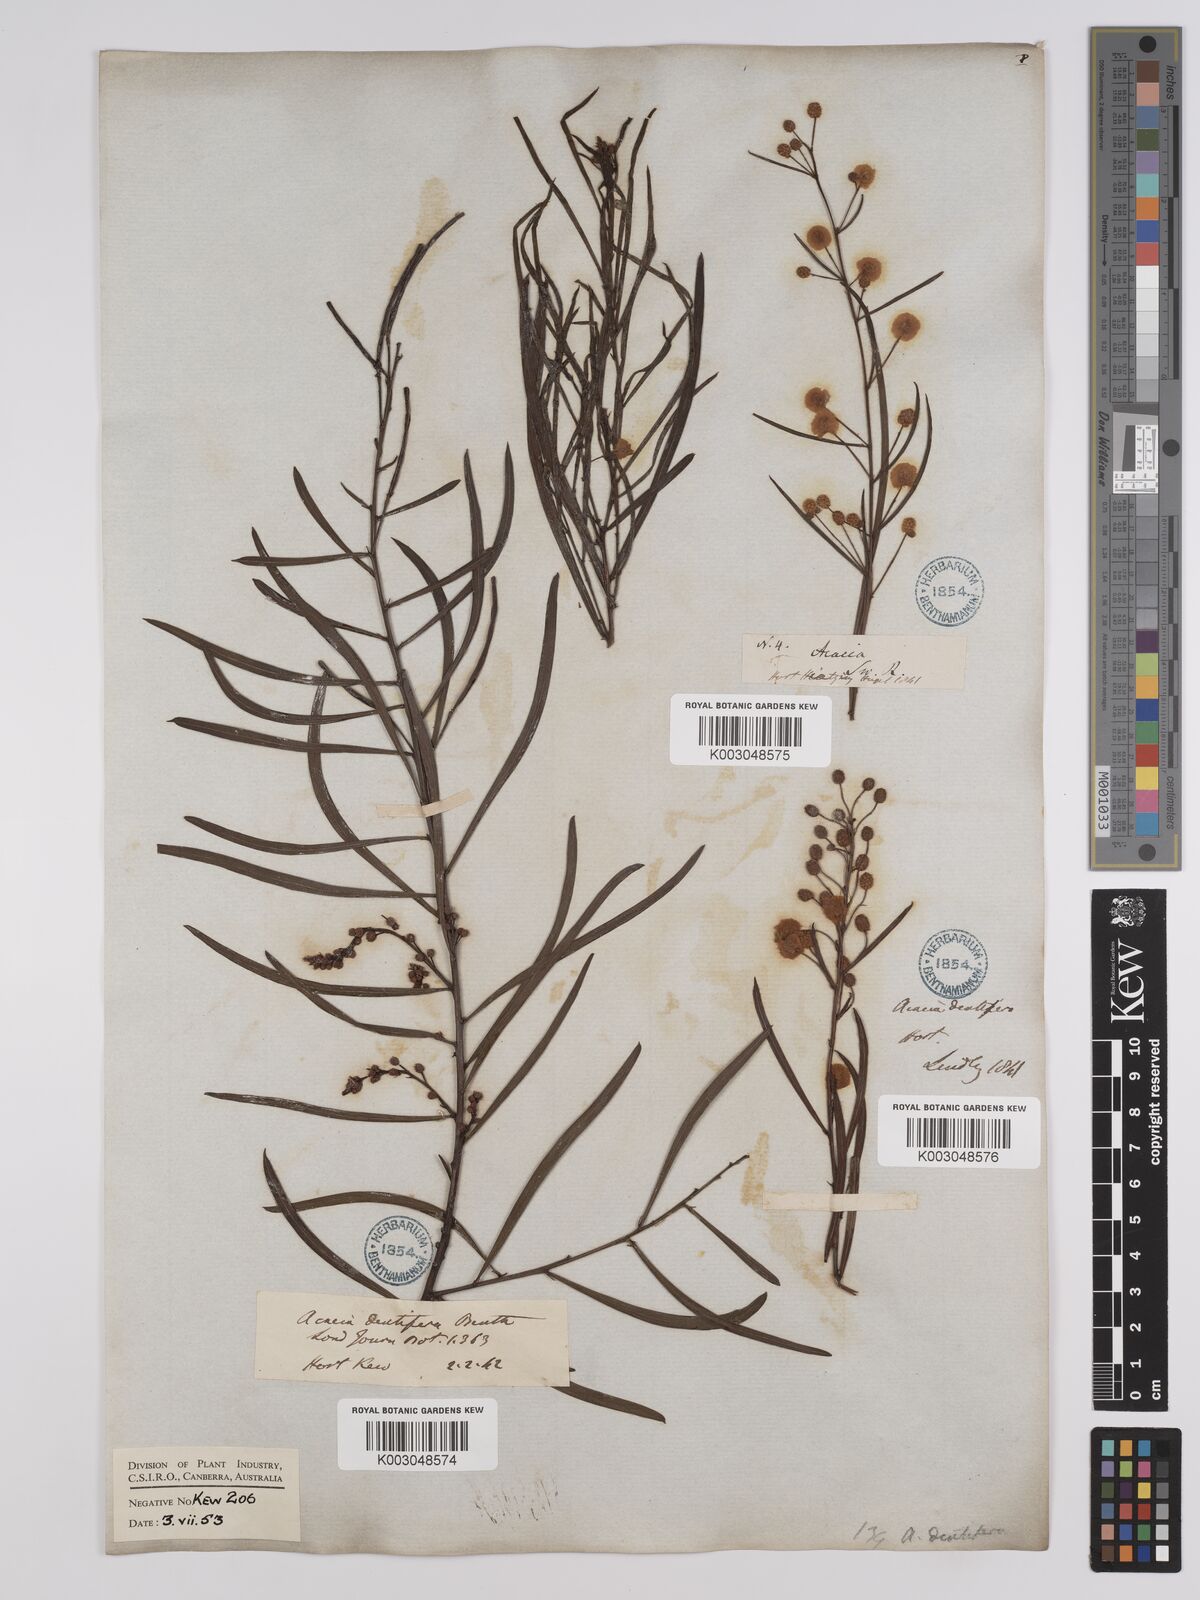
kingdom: Plantae
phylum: Tracheophyta
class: Magnoliopsida
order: Fabales
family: Fabaceae
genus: Acacia
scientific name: Acacia dentifera
